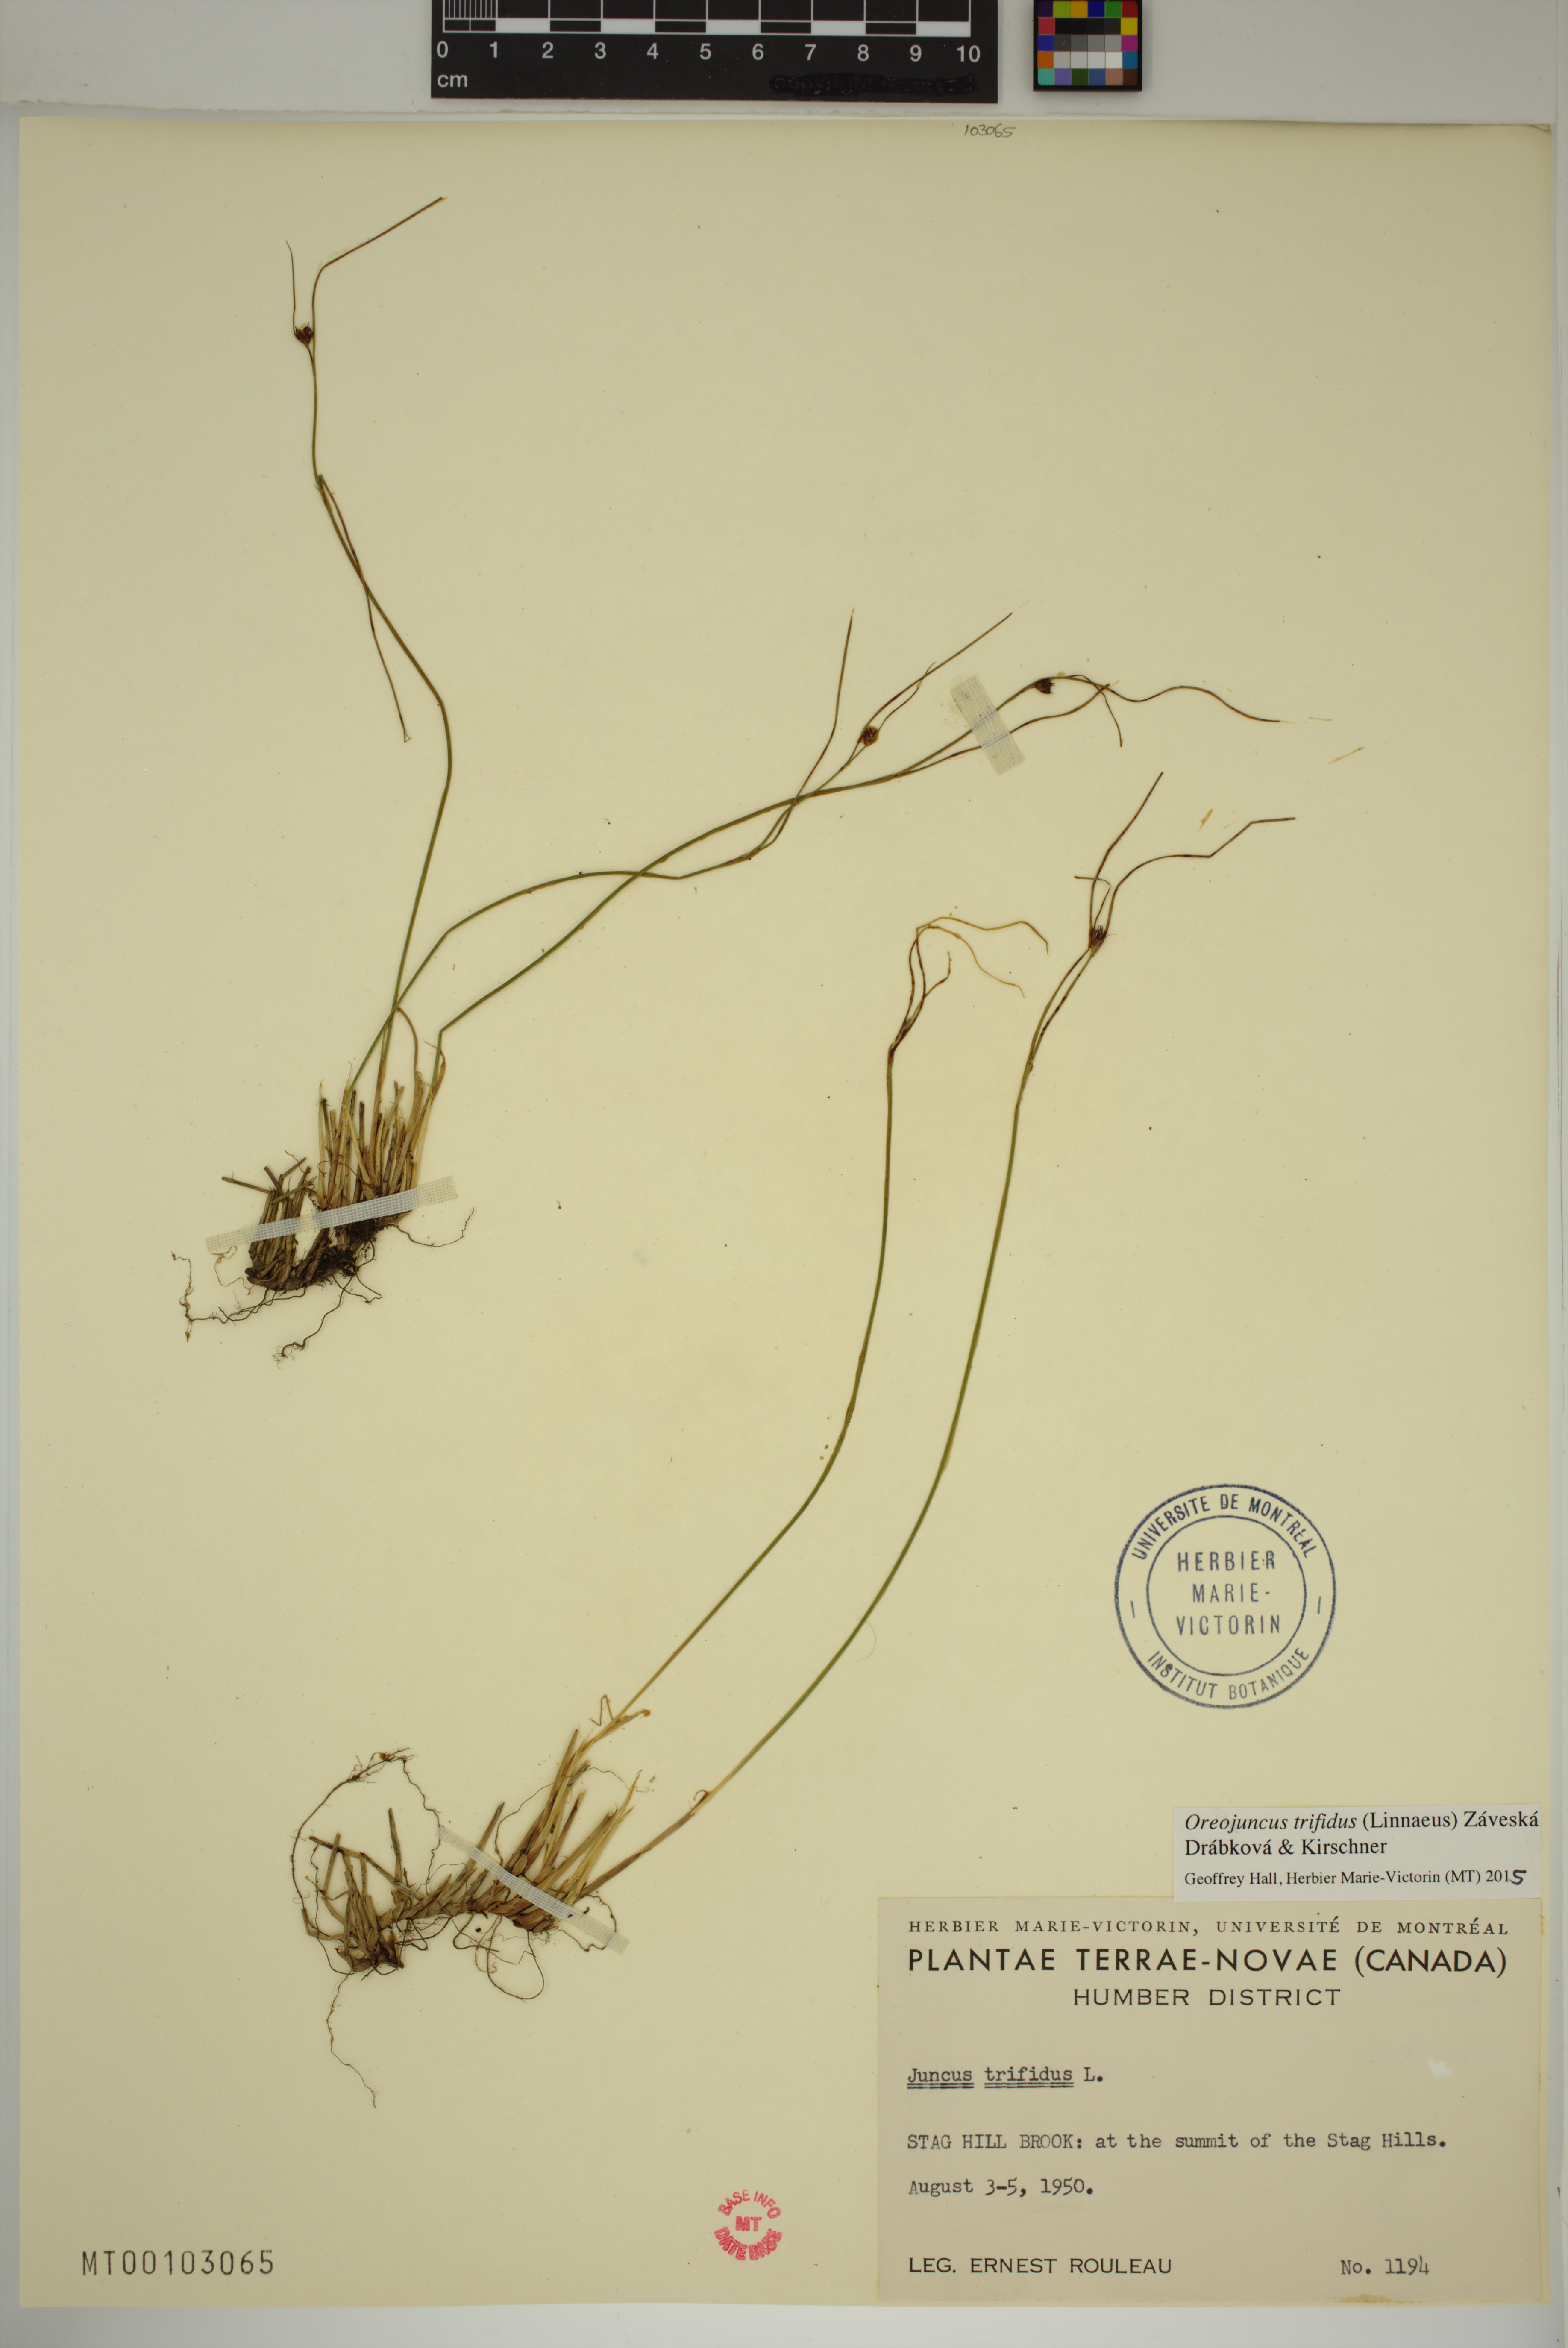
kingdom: Plantae
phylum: Tracheophyta
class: Liliopsida
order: Poales
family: Juncaceae
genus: Oreojuncus
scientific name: Oreojuncus trifidus
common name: Highland rush
